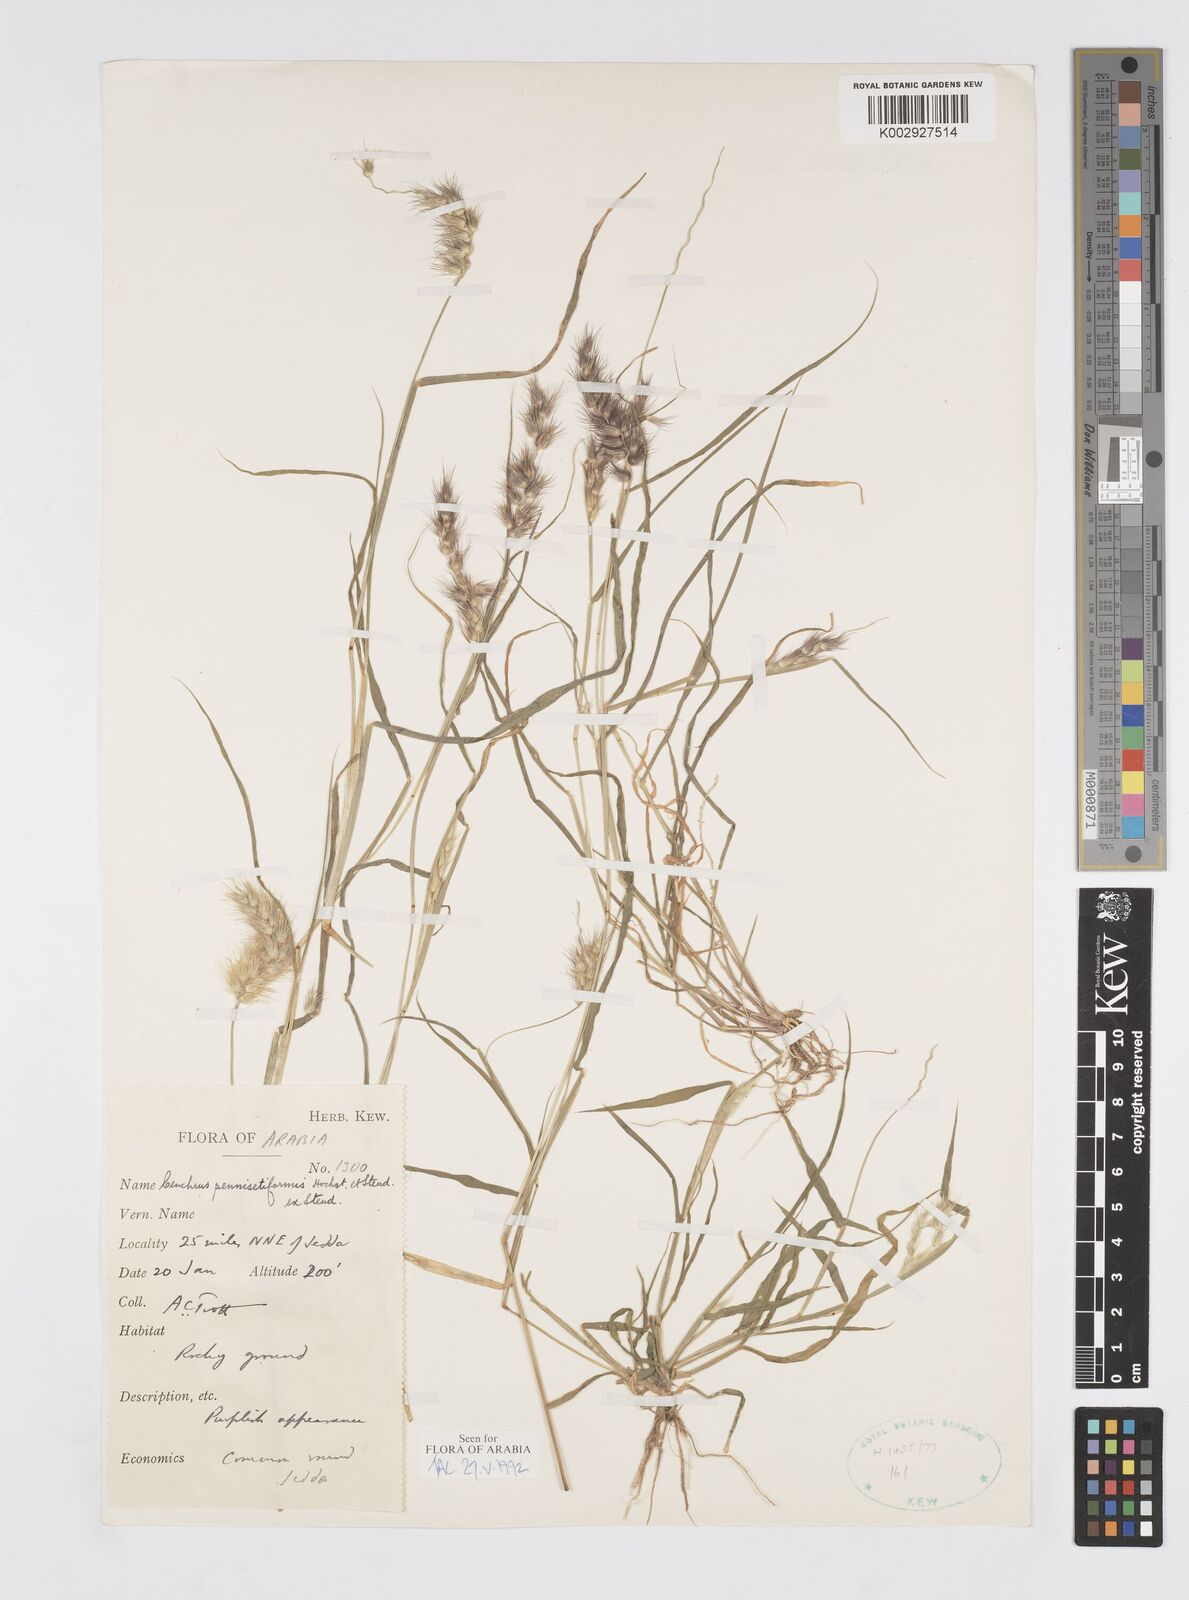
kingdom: Plantae
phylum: Tracheophyta
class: Liliopsida
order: Poales
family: Poaceae
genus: Cenchrus
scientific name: Cenchrus pennisetiformis
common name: Cloncurry
